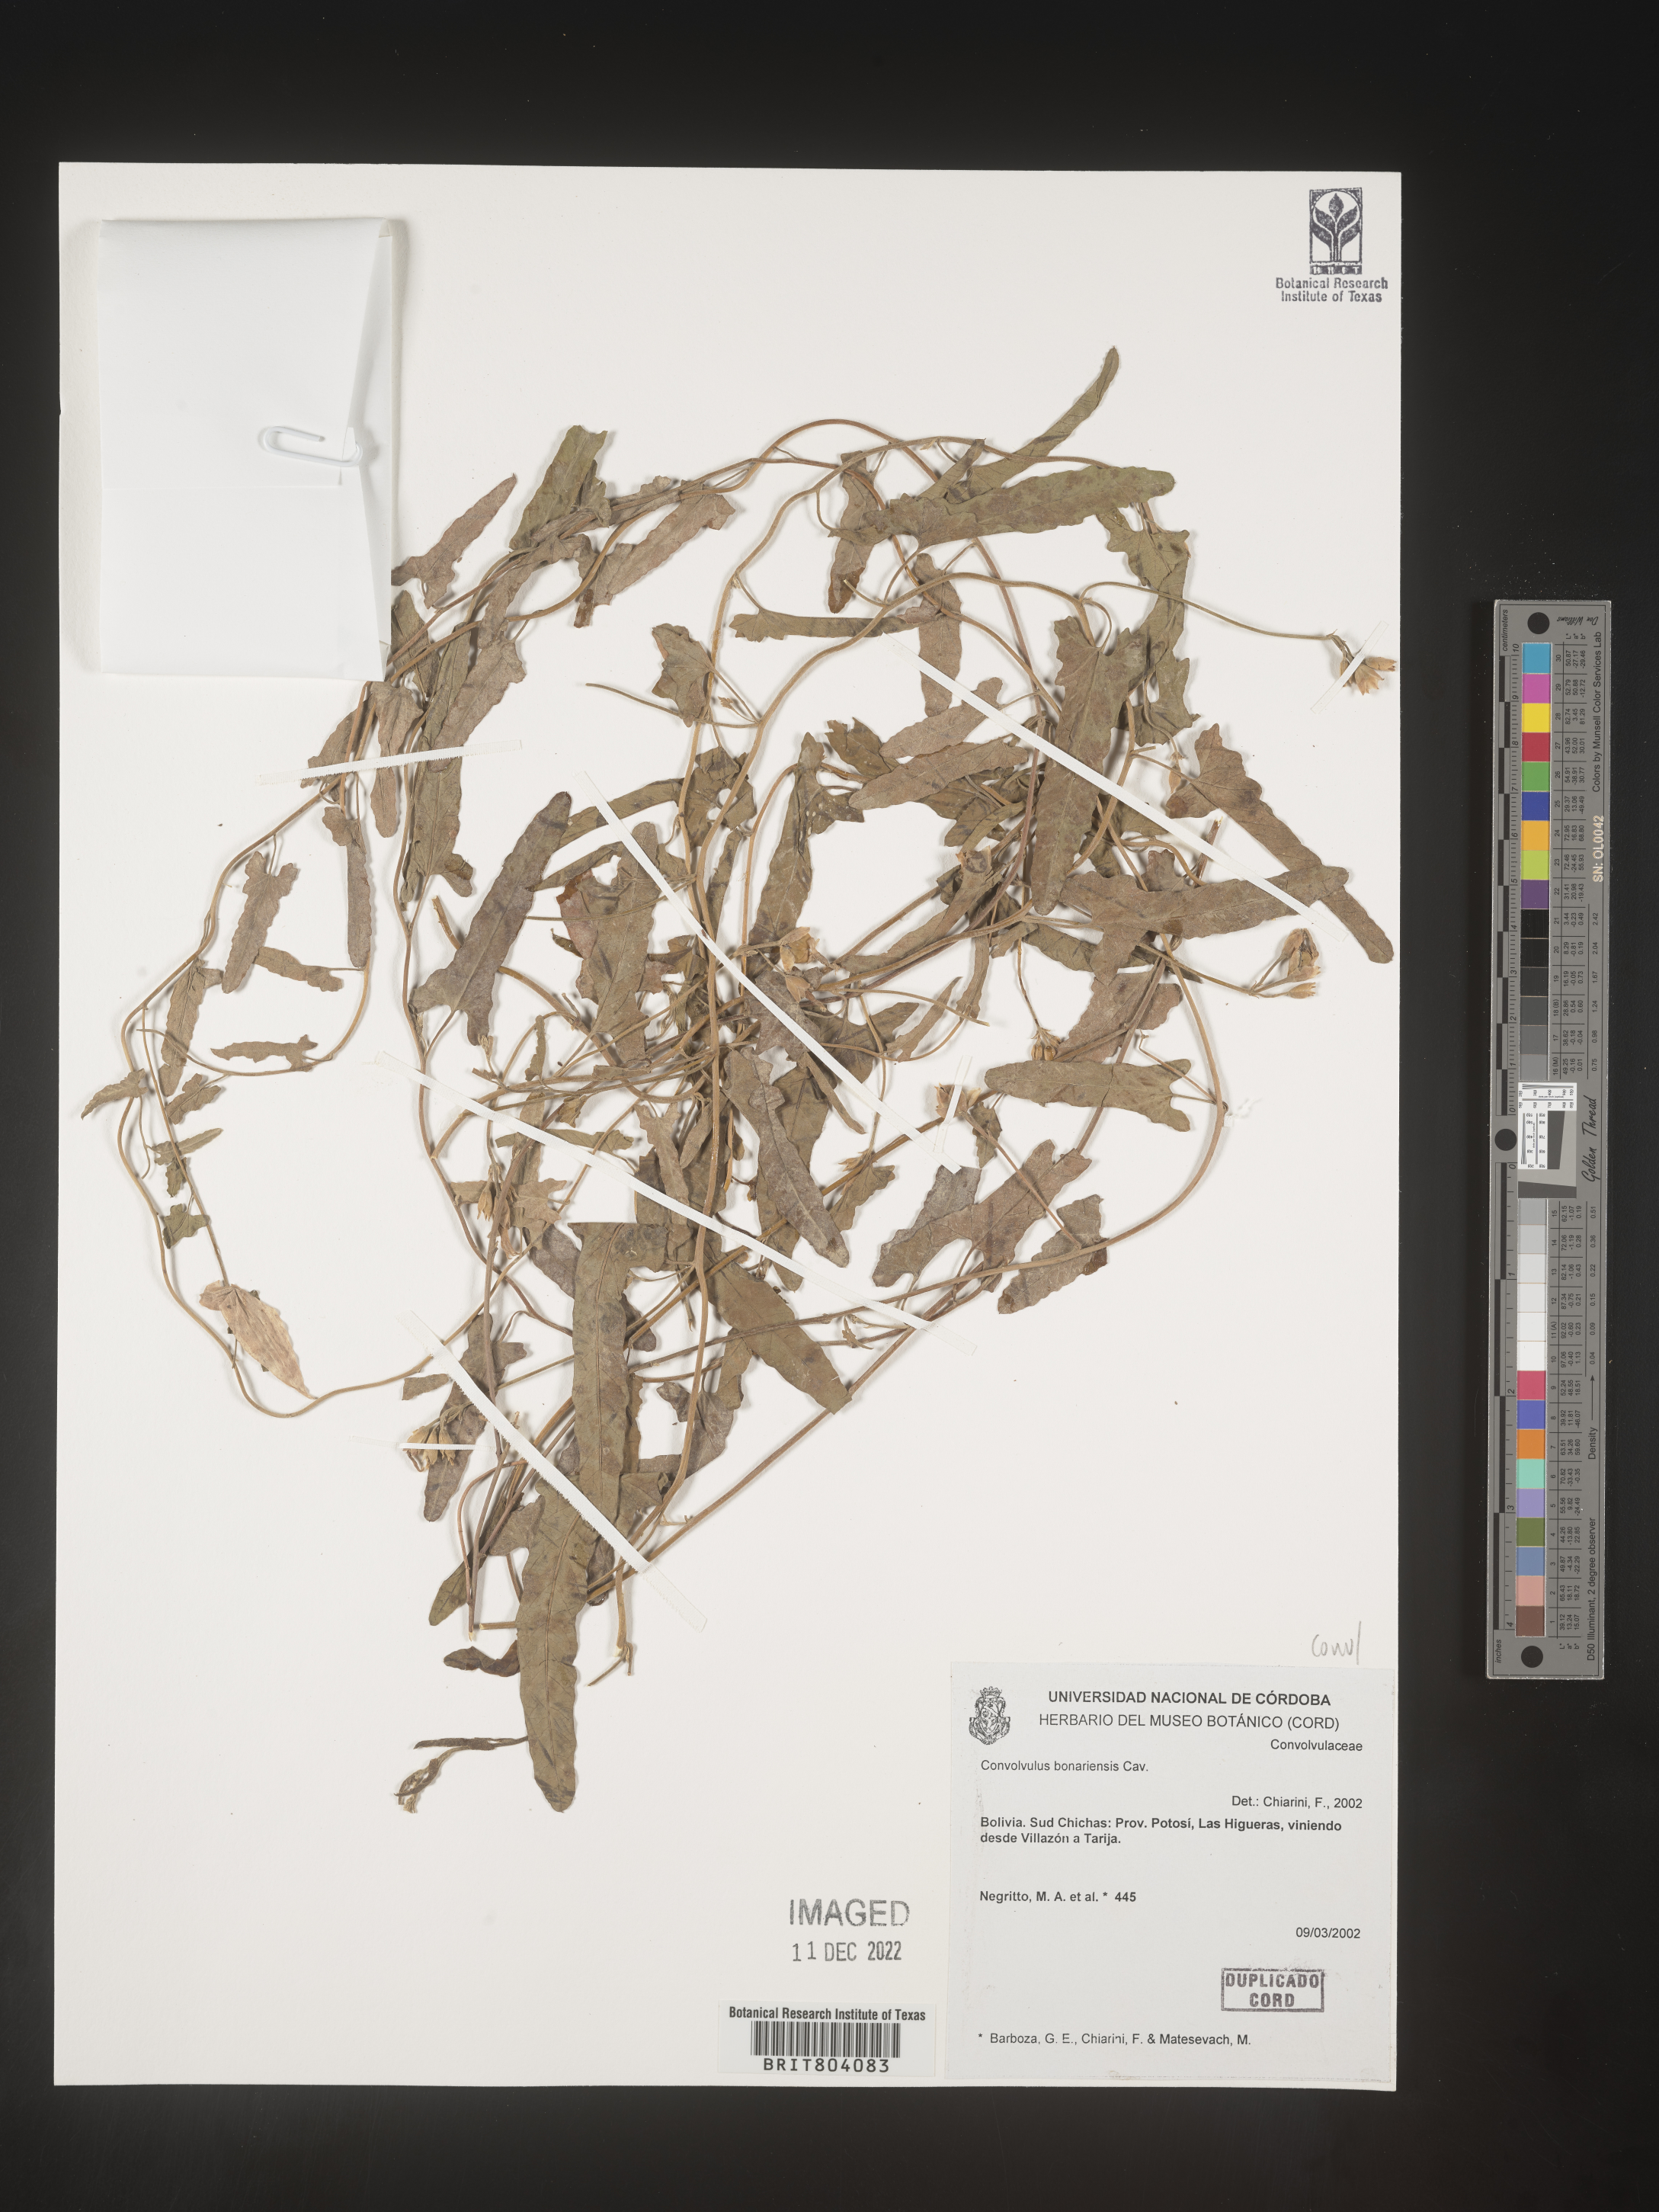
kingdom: Plantae
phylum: Tracheophyta
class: Magnoliopsida
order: Solanales
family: Convolvulaceae
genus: Convolvulus
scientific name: Convolvulus
